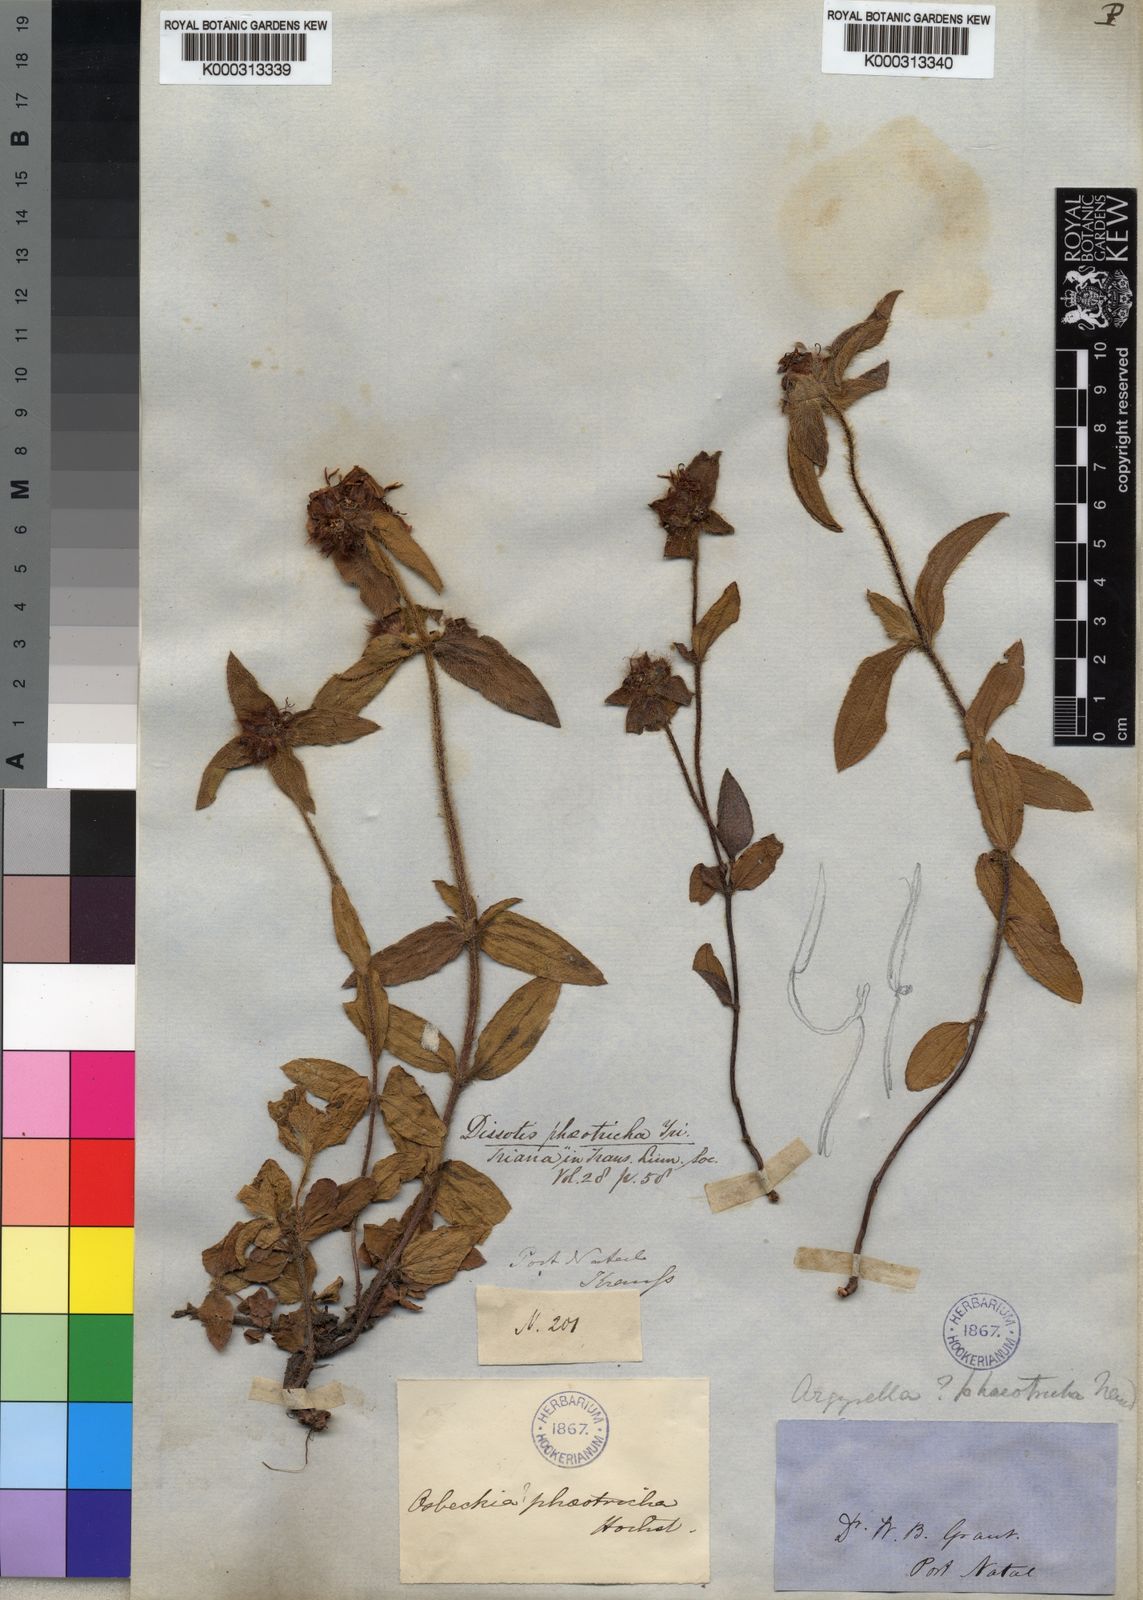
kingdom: Plantae
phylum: Tracheophyta
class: Magnoliopsida
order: Myrtales
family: Melastomataceae
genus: Dissotis
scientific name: Dissotis
